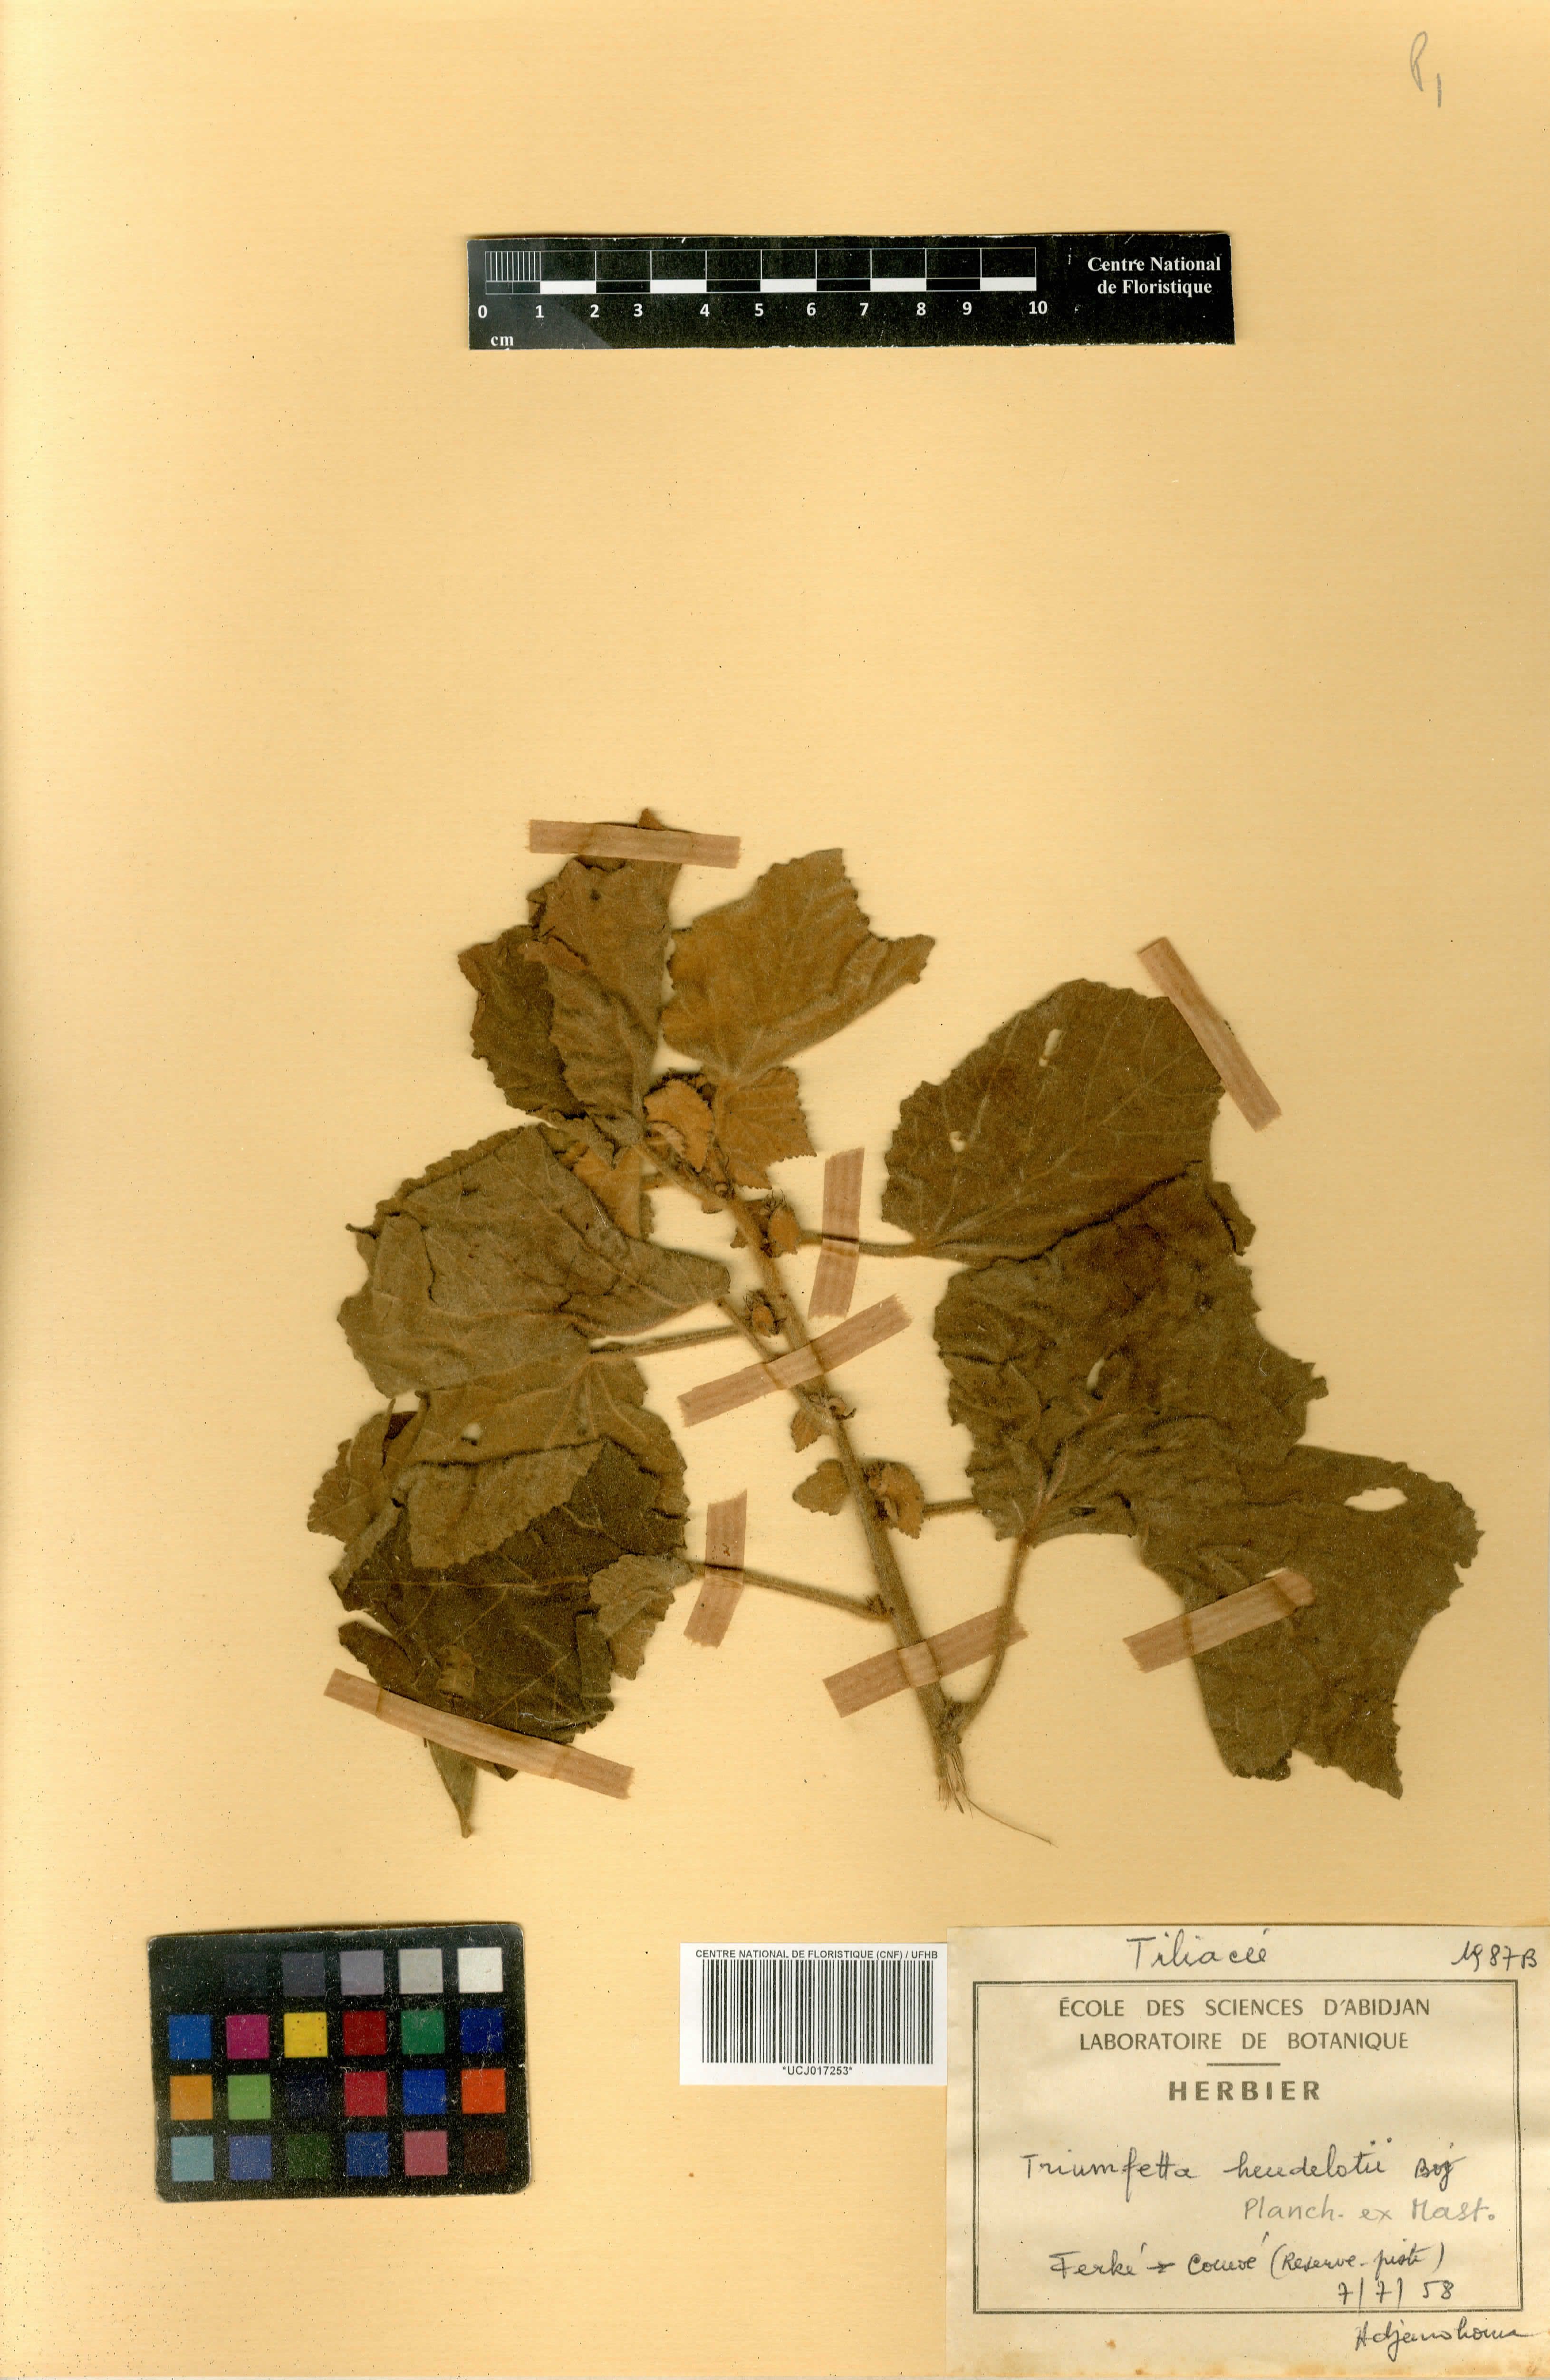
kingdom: Plantae
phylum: Tracheophyta
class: Magnoliopsida
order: Malvales
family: Malvaceae
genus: Triumfetta
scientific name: Triumfetta heudelotii
